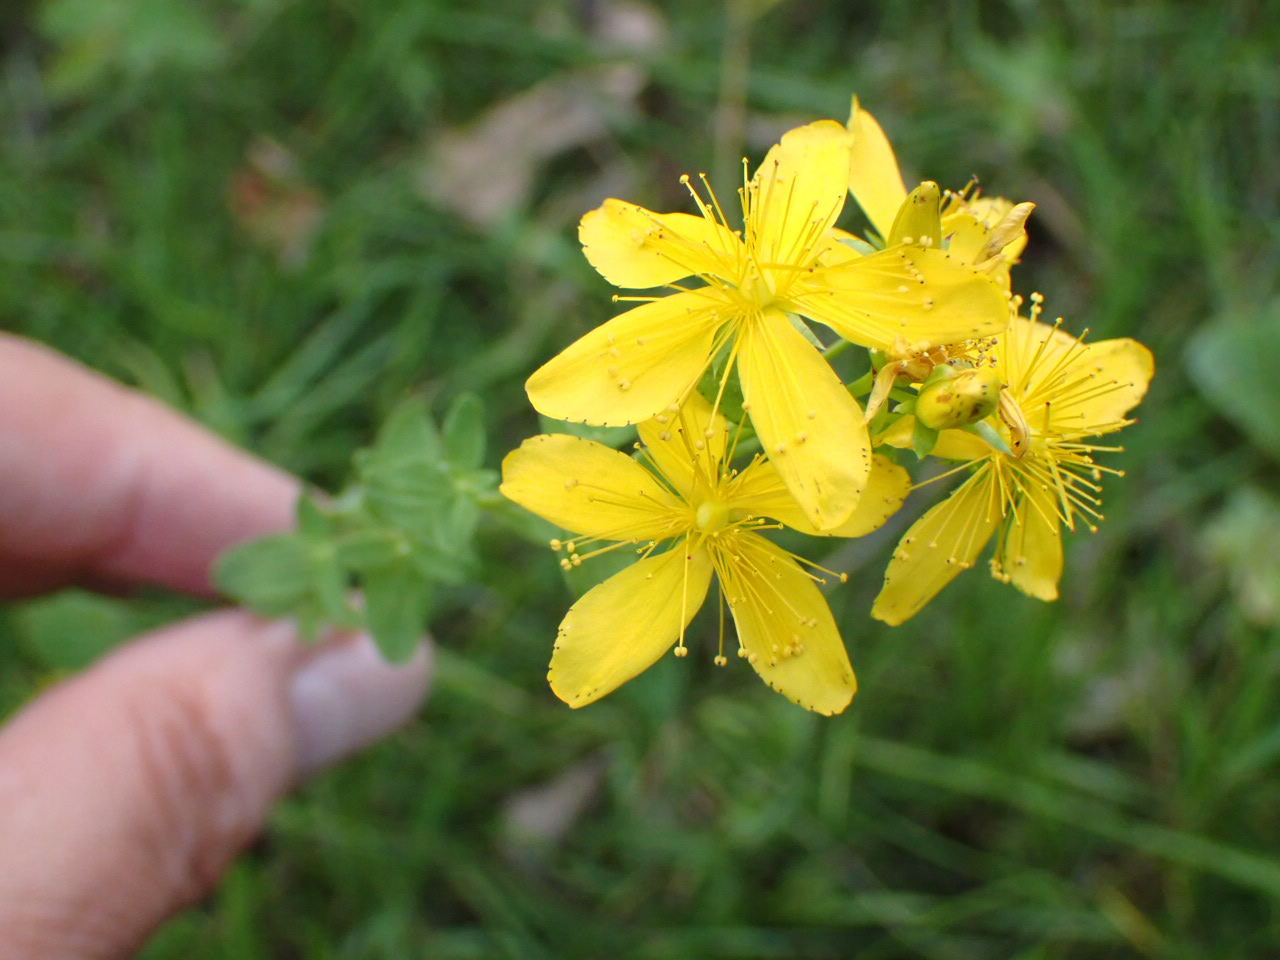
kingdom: Plantae
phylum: Tracheophyta
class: Magnoliopsida
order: Malpighiales
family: Hypericaceae
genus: Hypericum
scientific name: Hypericum perforatum
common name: Prikbladet perikon
